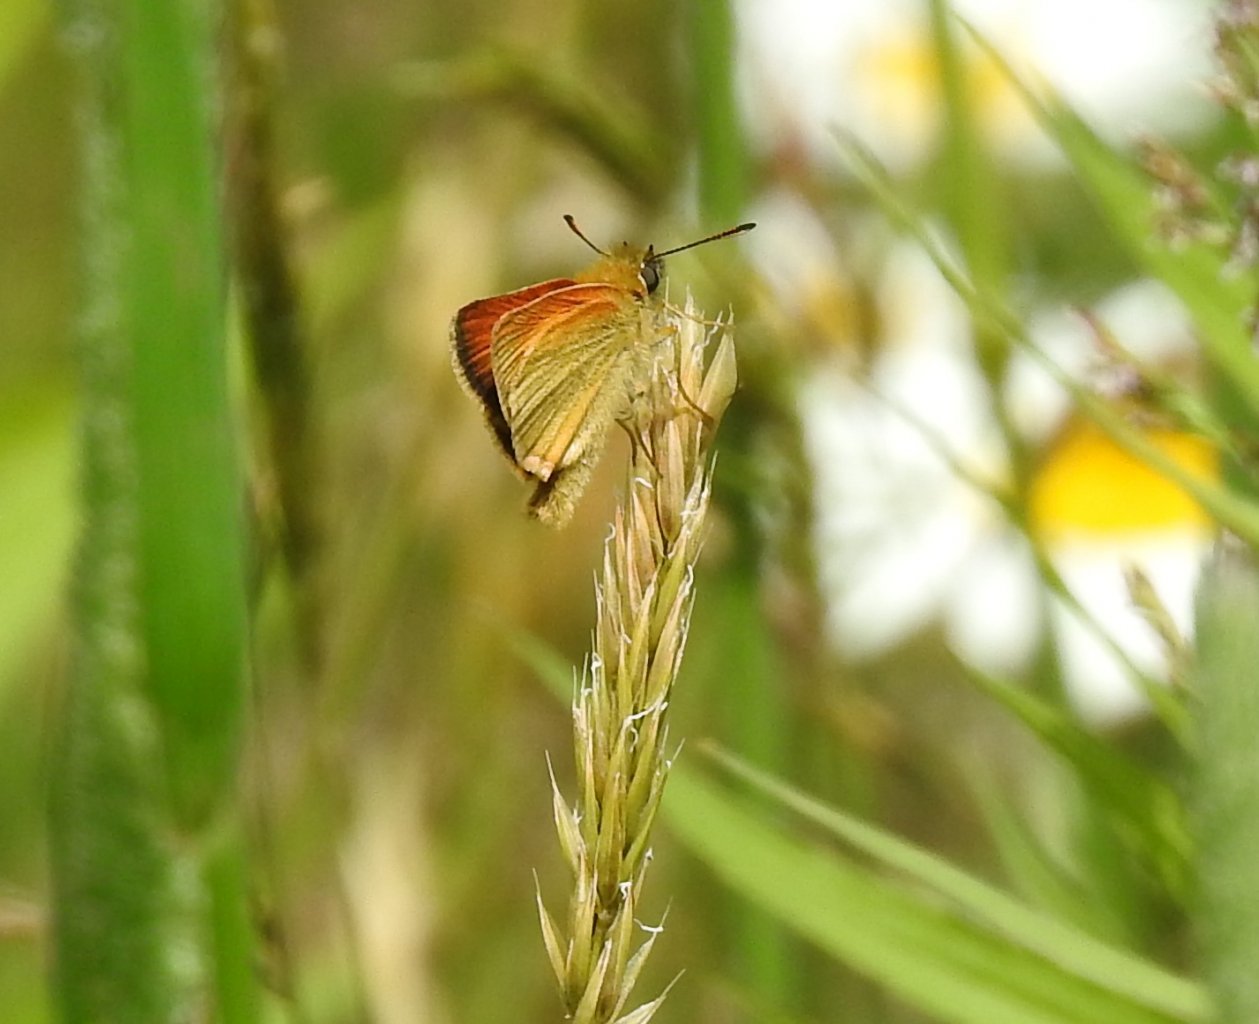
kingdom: Animalia
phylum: Arthropoda
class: Insecta
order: Lepidoptera
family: Hesperiidae
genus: Thymelicus
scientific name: Thymelicus lineola
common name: European Skipper
